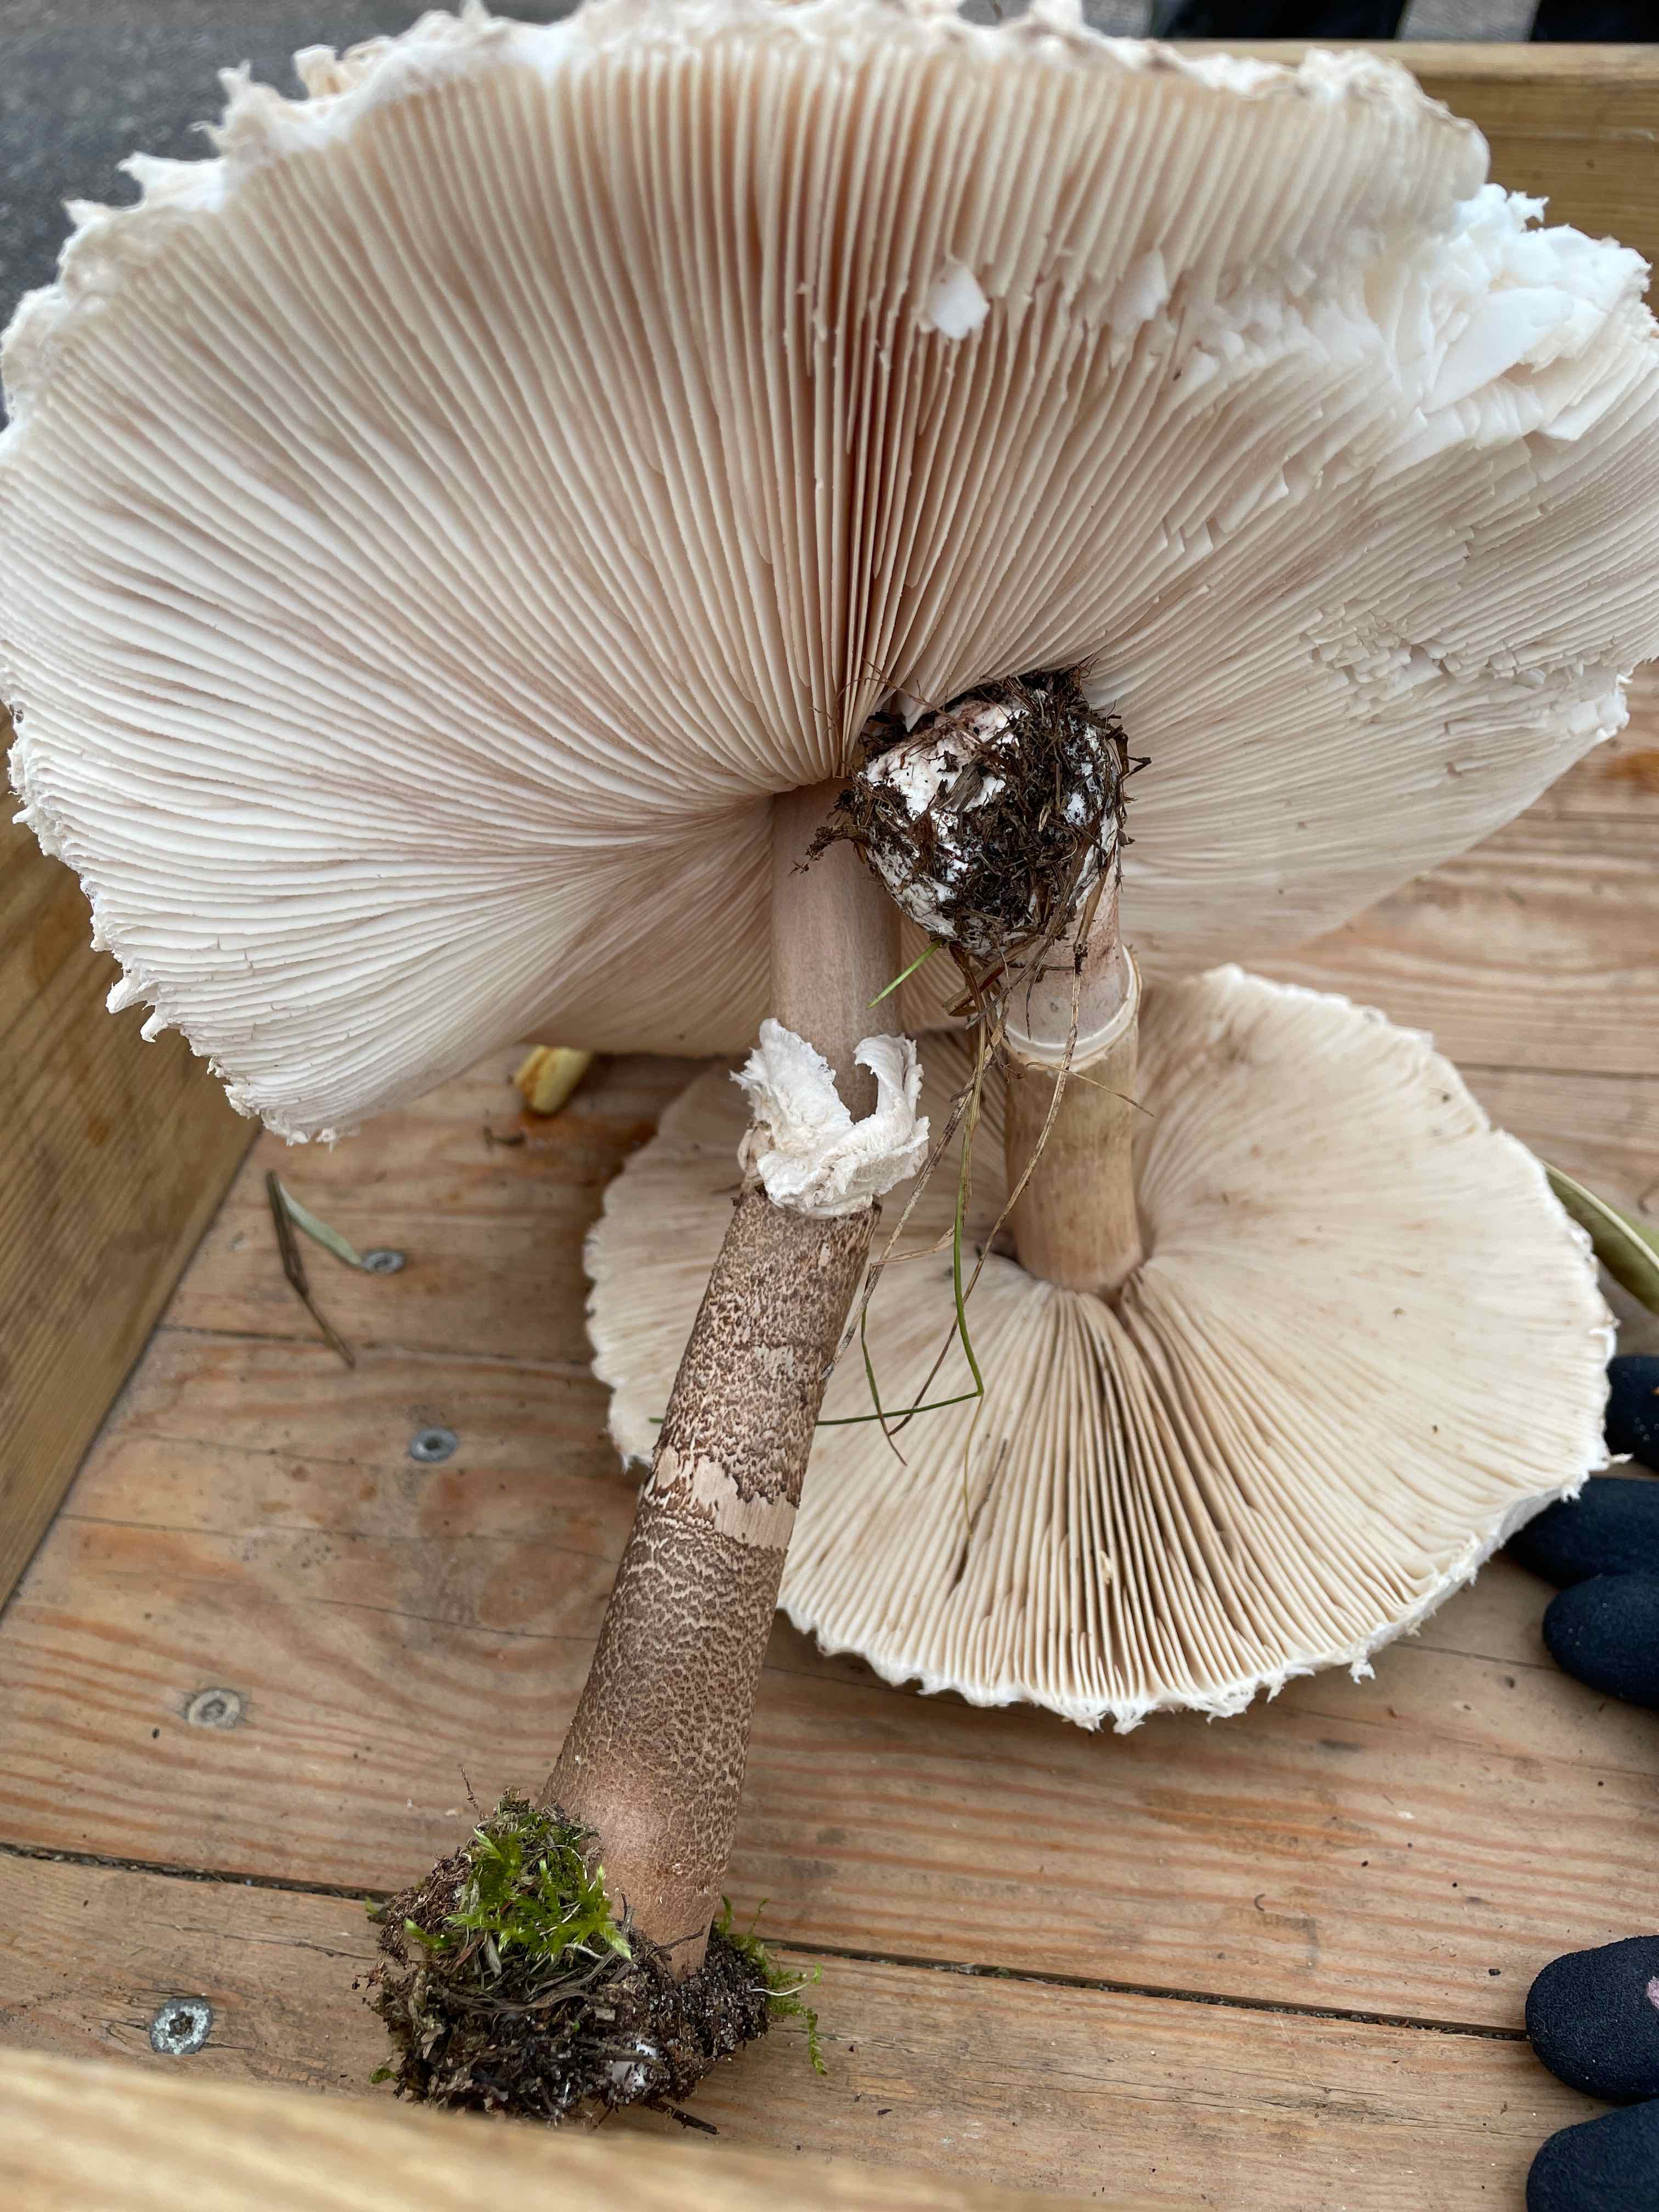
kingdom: Fungi
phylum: Basidiomycota
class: Agaricomycetes
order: Agaricales
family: Agaricaceae
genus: Macrolepiota
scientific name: Macrolepiota procera
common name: stor kæmpeparasolhat
